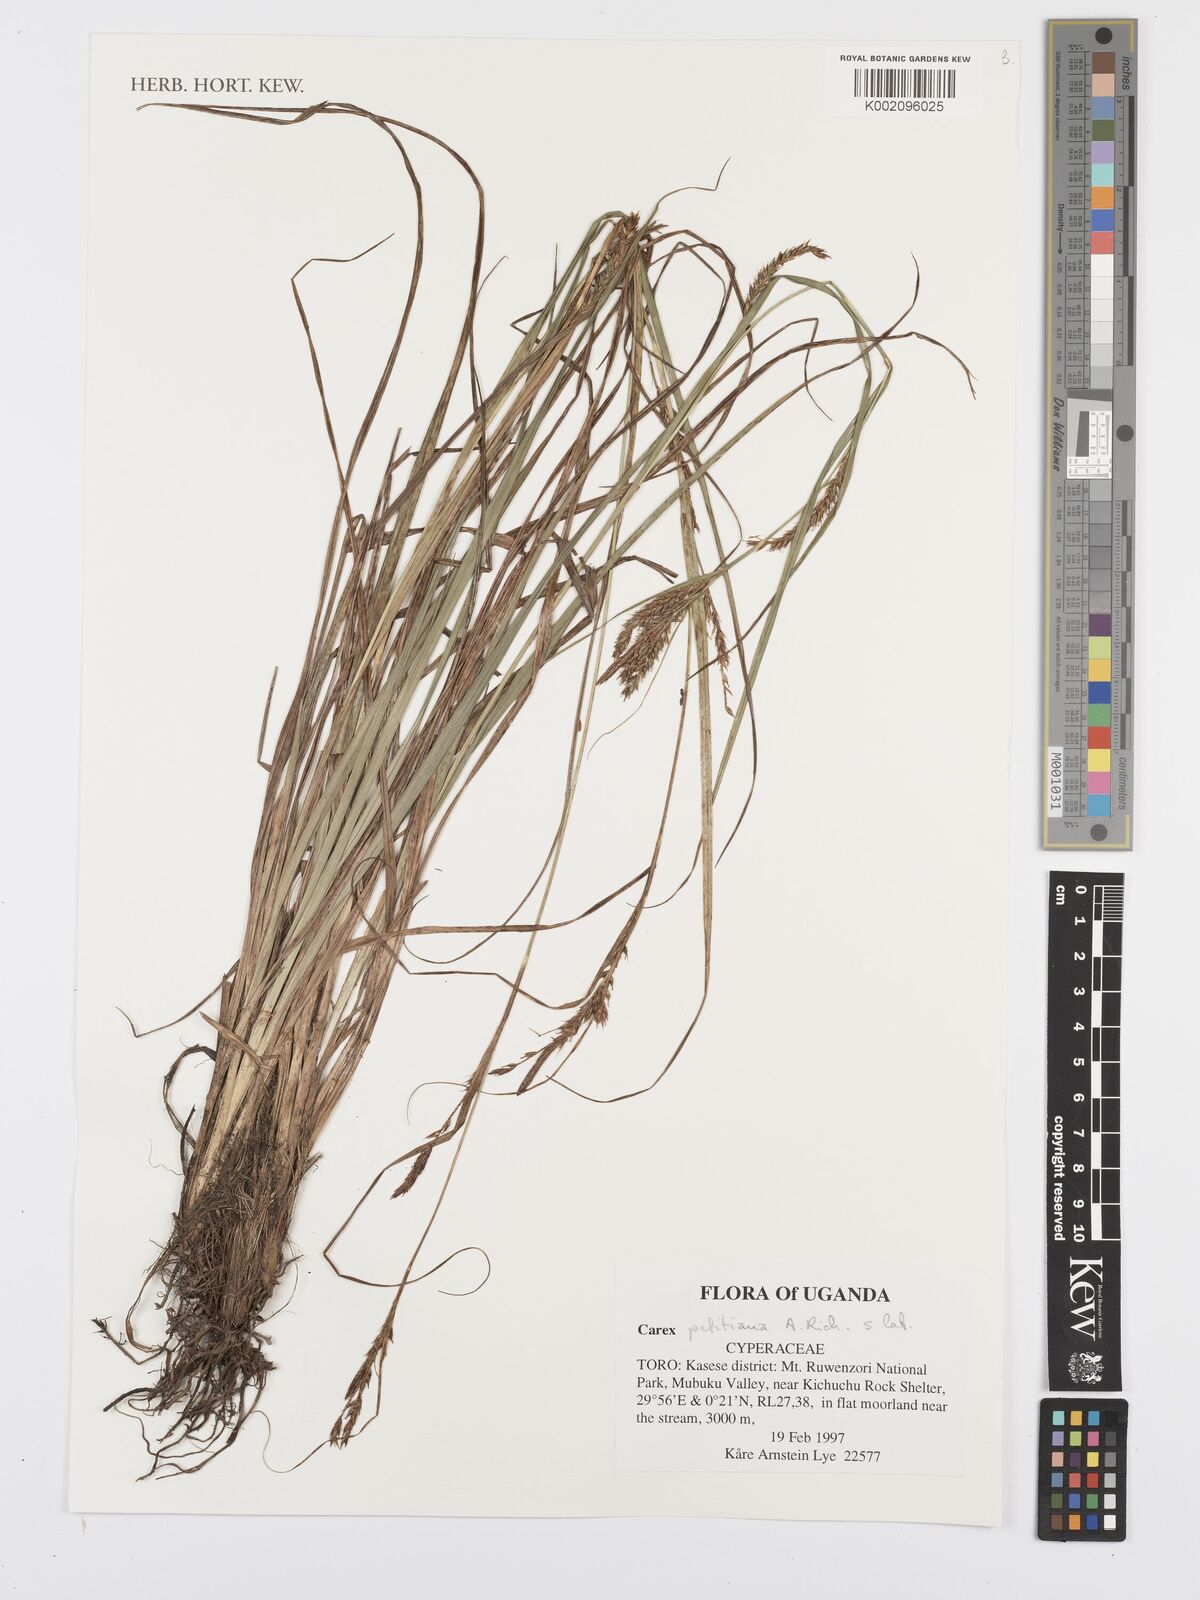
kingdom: Plantae
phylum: Tracheophyta
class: Liliopsida
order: Poales
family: Cyperaceae
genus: Carex
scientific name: Carex petitiana
